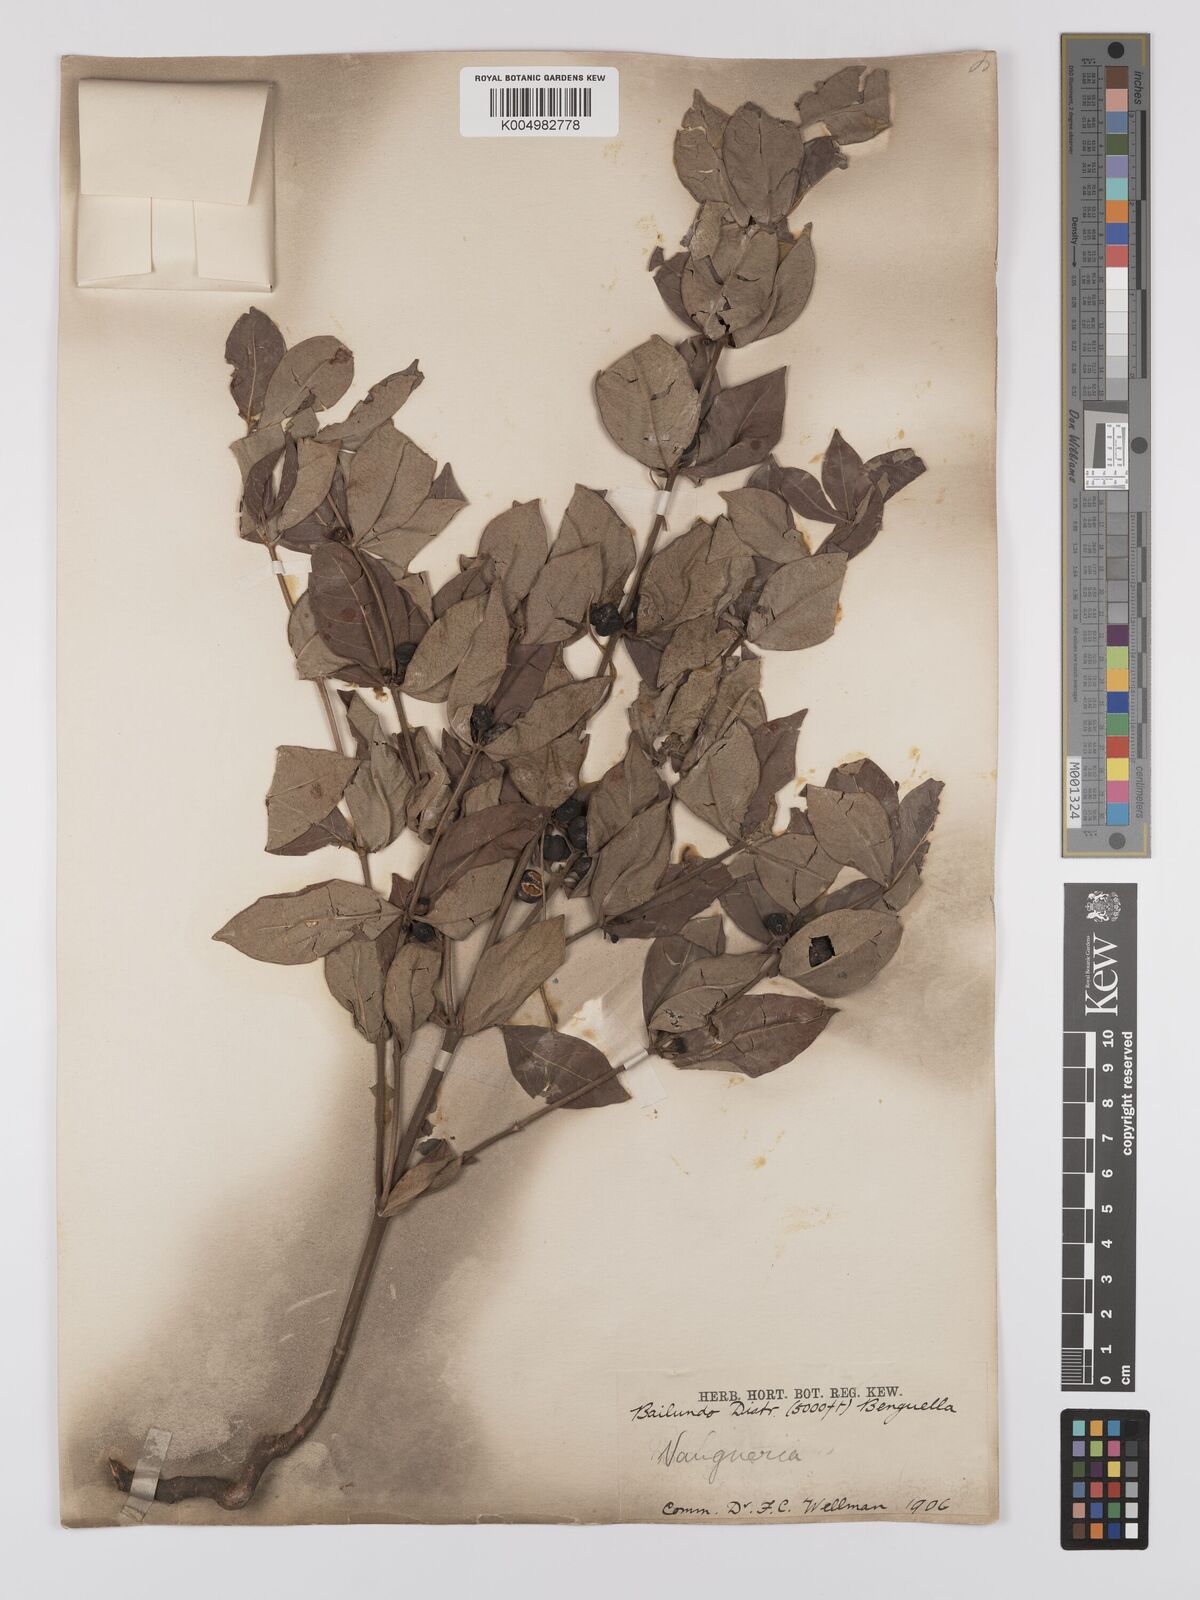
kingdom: Plantae
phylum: Tracheophyta
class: Magnoliopsida
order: Gentianales
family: Rubiaceae
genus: Fadogia
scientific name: Fadogia
